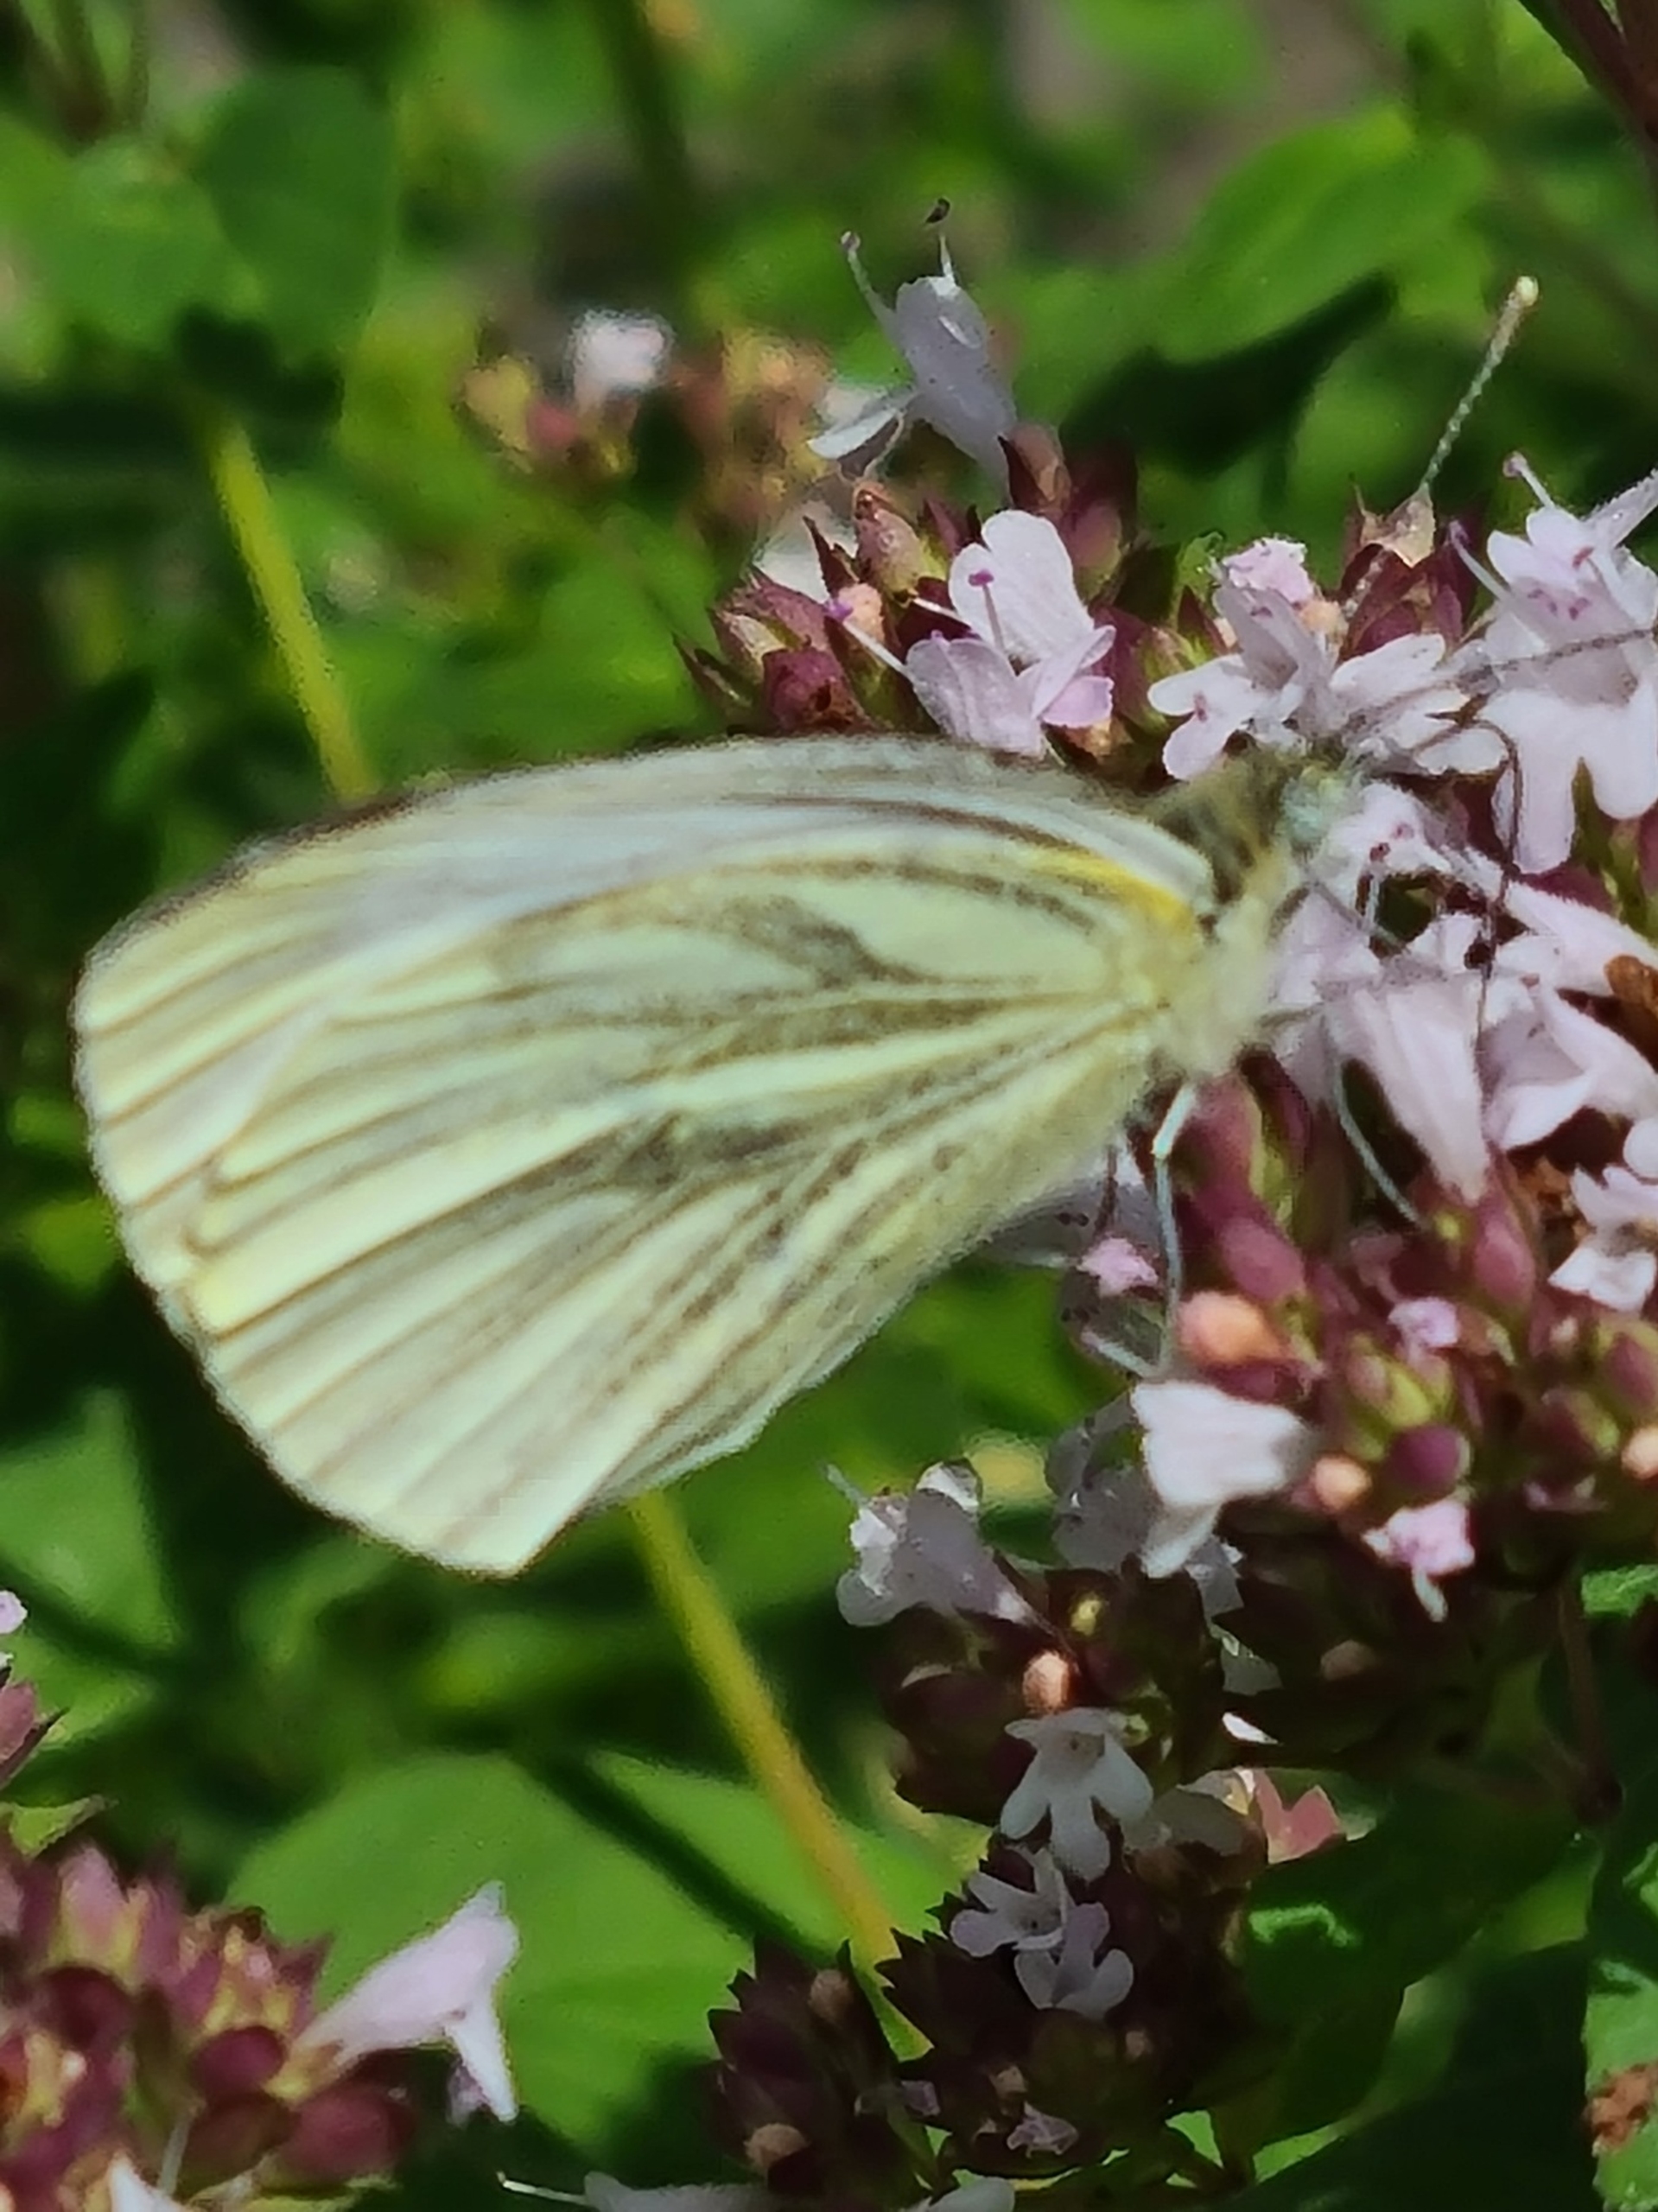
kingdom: Animalia
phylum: Arthropoda
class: Insecta
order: Lepidoptera
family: Pieridae
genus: Pieris
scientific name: Pieris napi
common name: Grønåret kålsommerfugl
